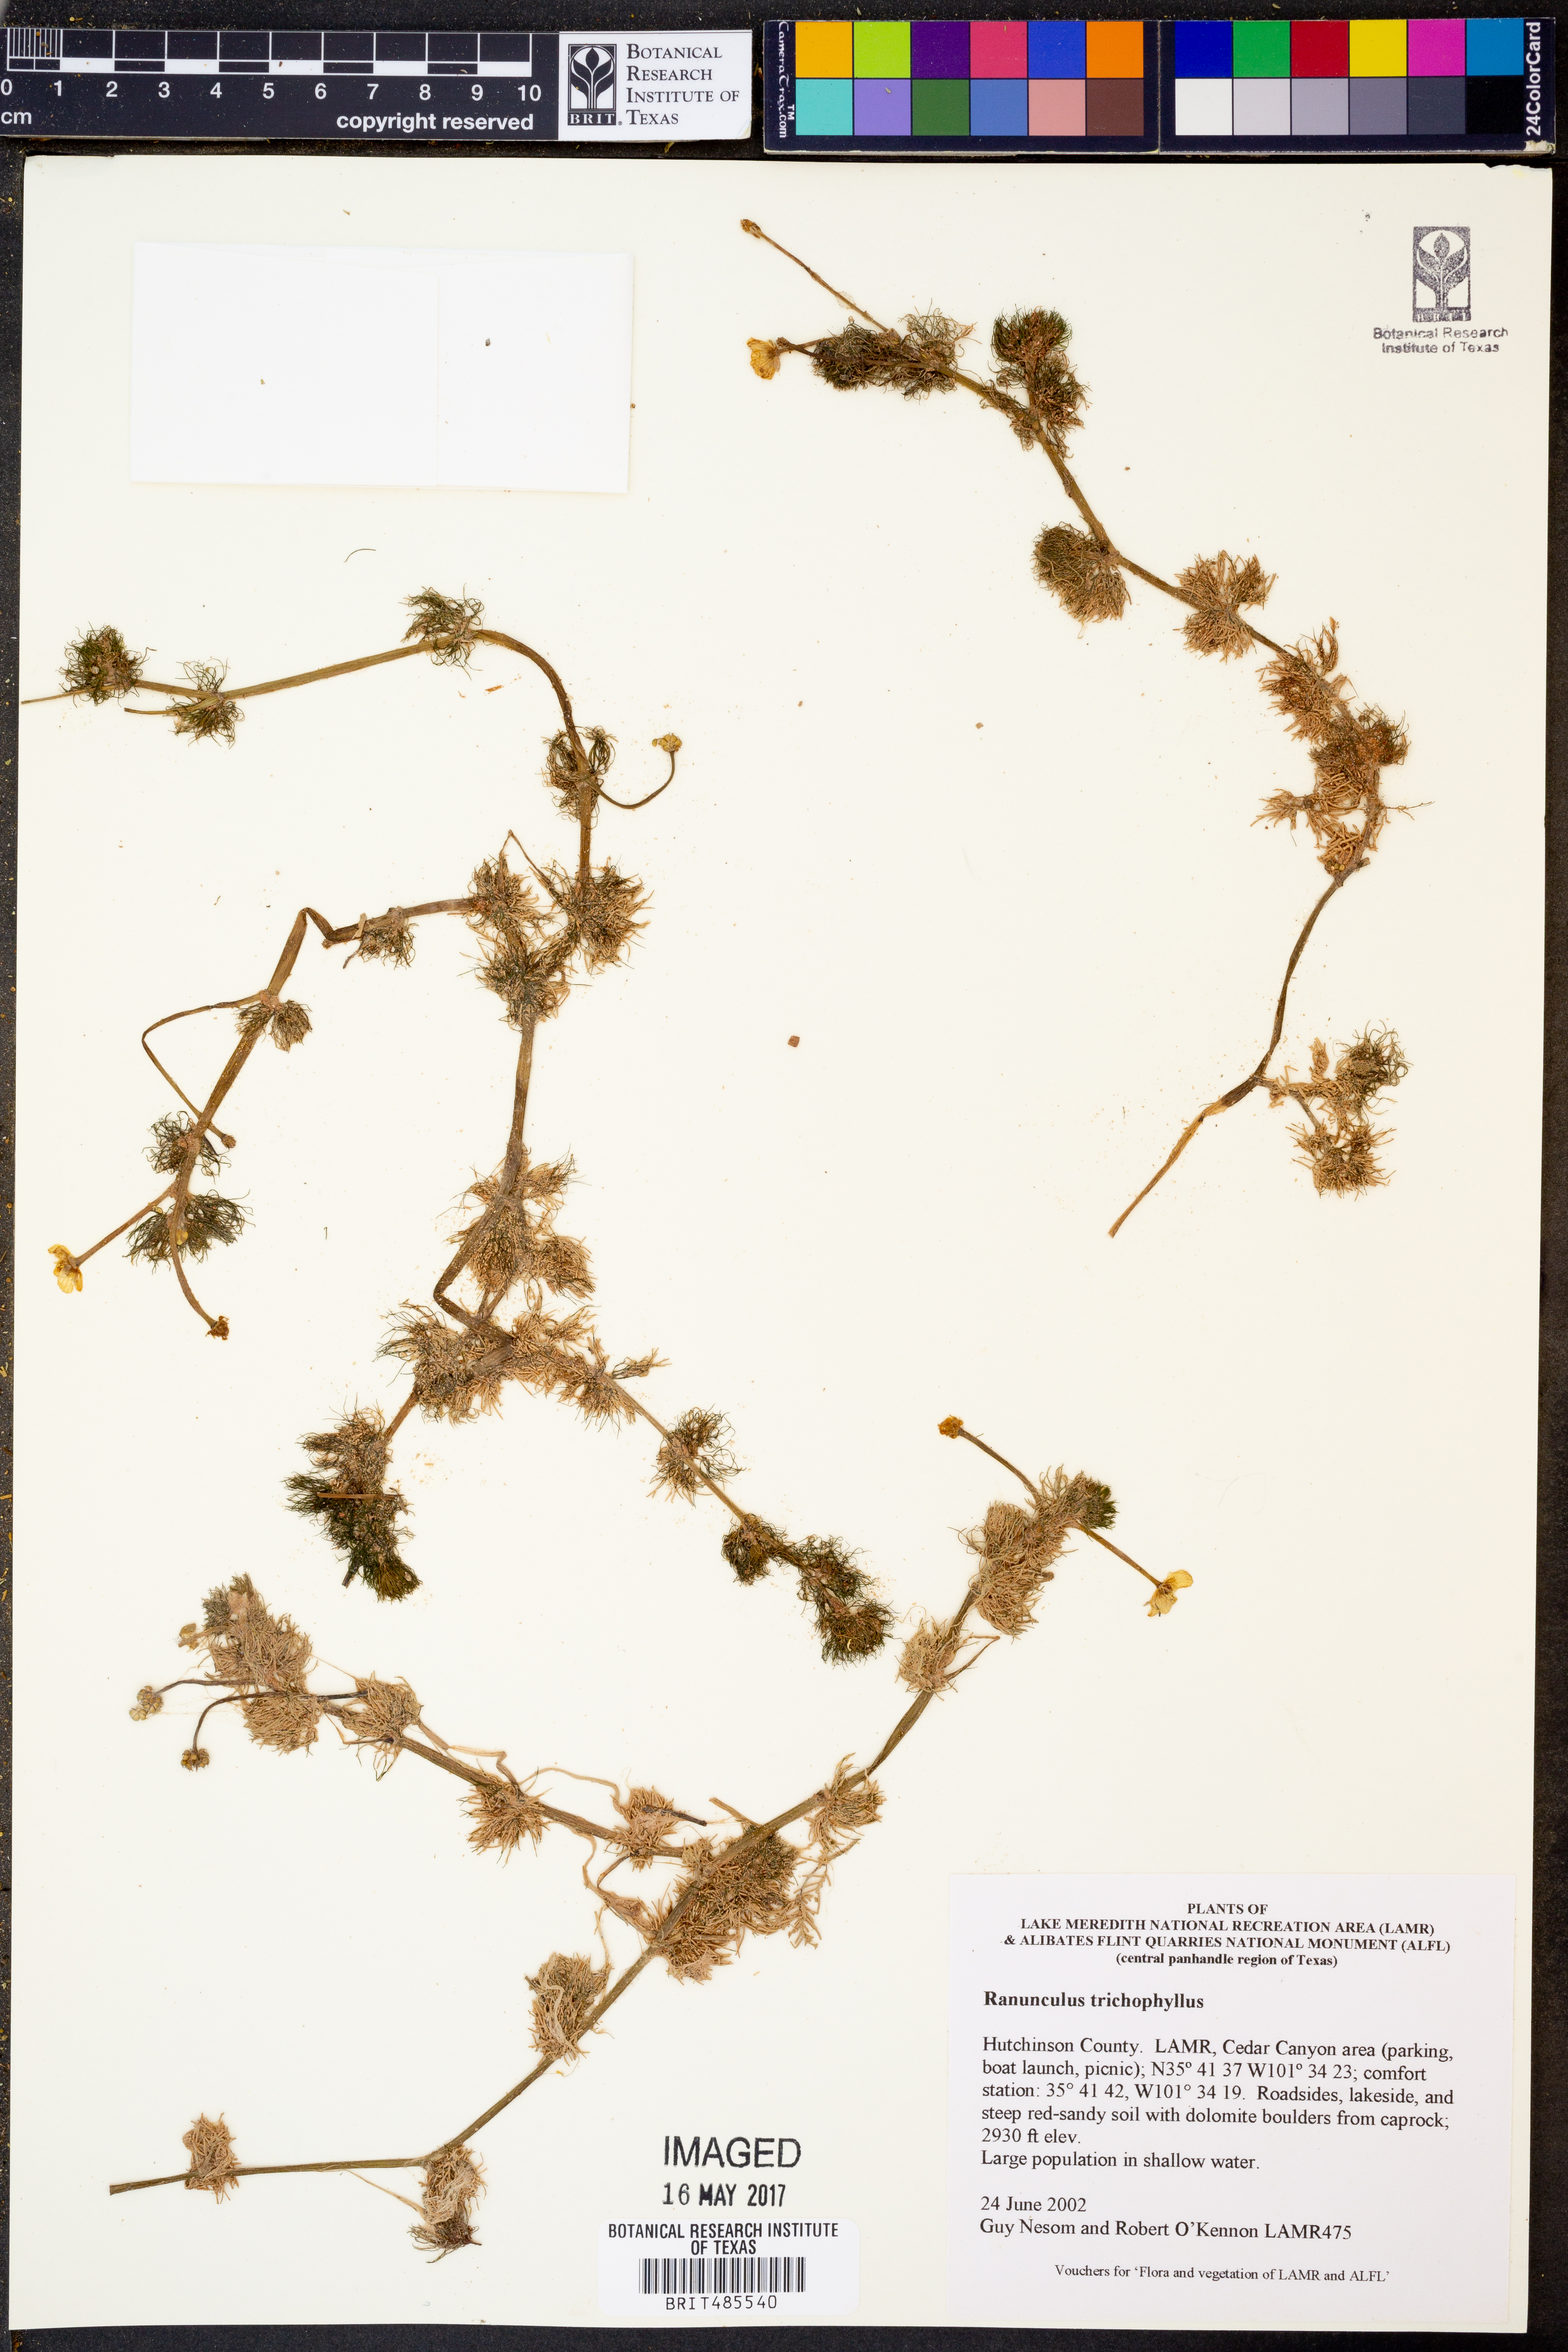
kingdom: Plantae
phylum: Tracheophyta
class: Magnoliopsida
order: Ranunculales
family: Ranunculaceae
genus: Ranunculus
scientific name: Ranunculus trichophyllus
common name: Thread-leaved water-crowfoot
